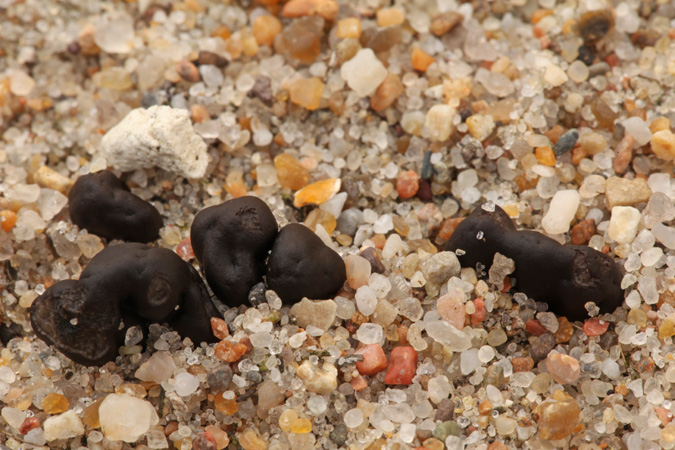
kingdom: Fungi
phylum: Ascomycota
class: Geoglossomycetes
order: Geoglossales
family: Geoglossaceae
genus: Sabuloglossum
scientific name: Sabuloglossum arenarium
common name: klit-jordtunge
